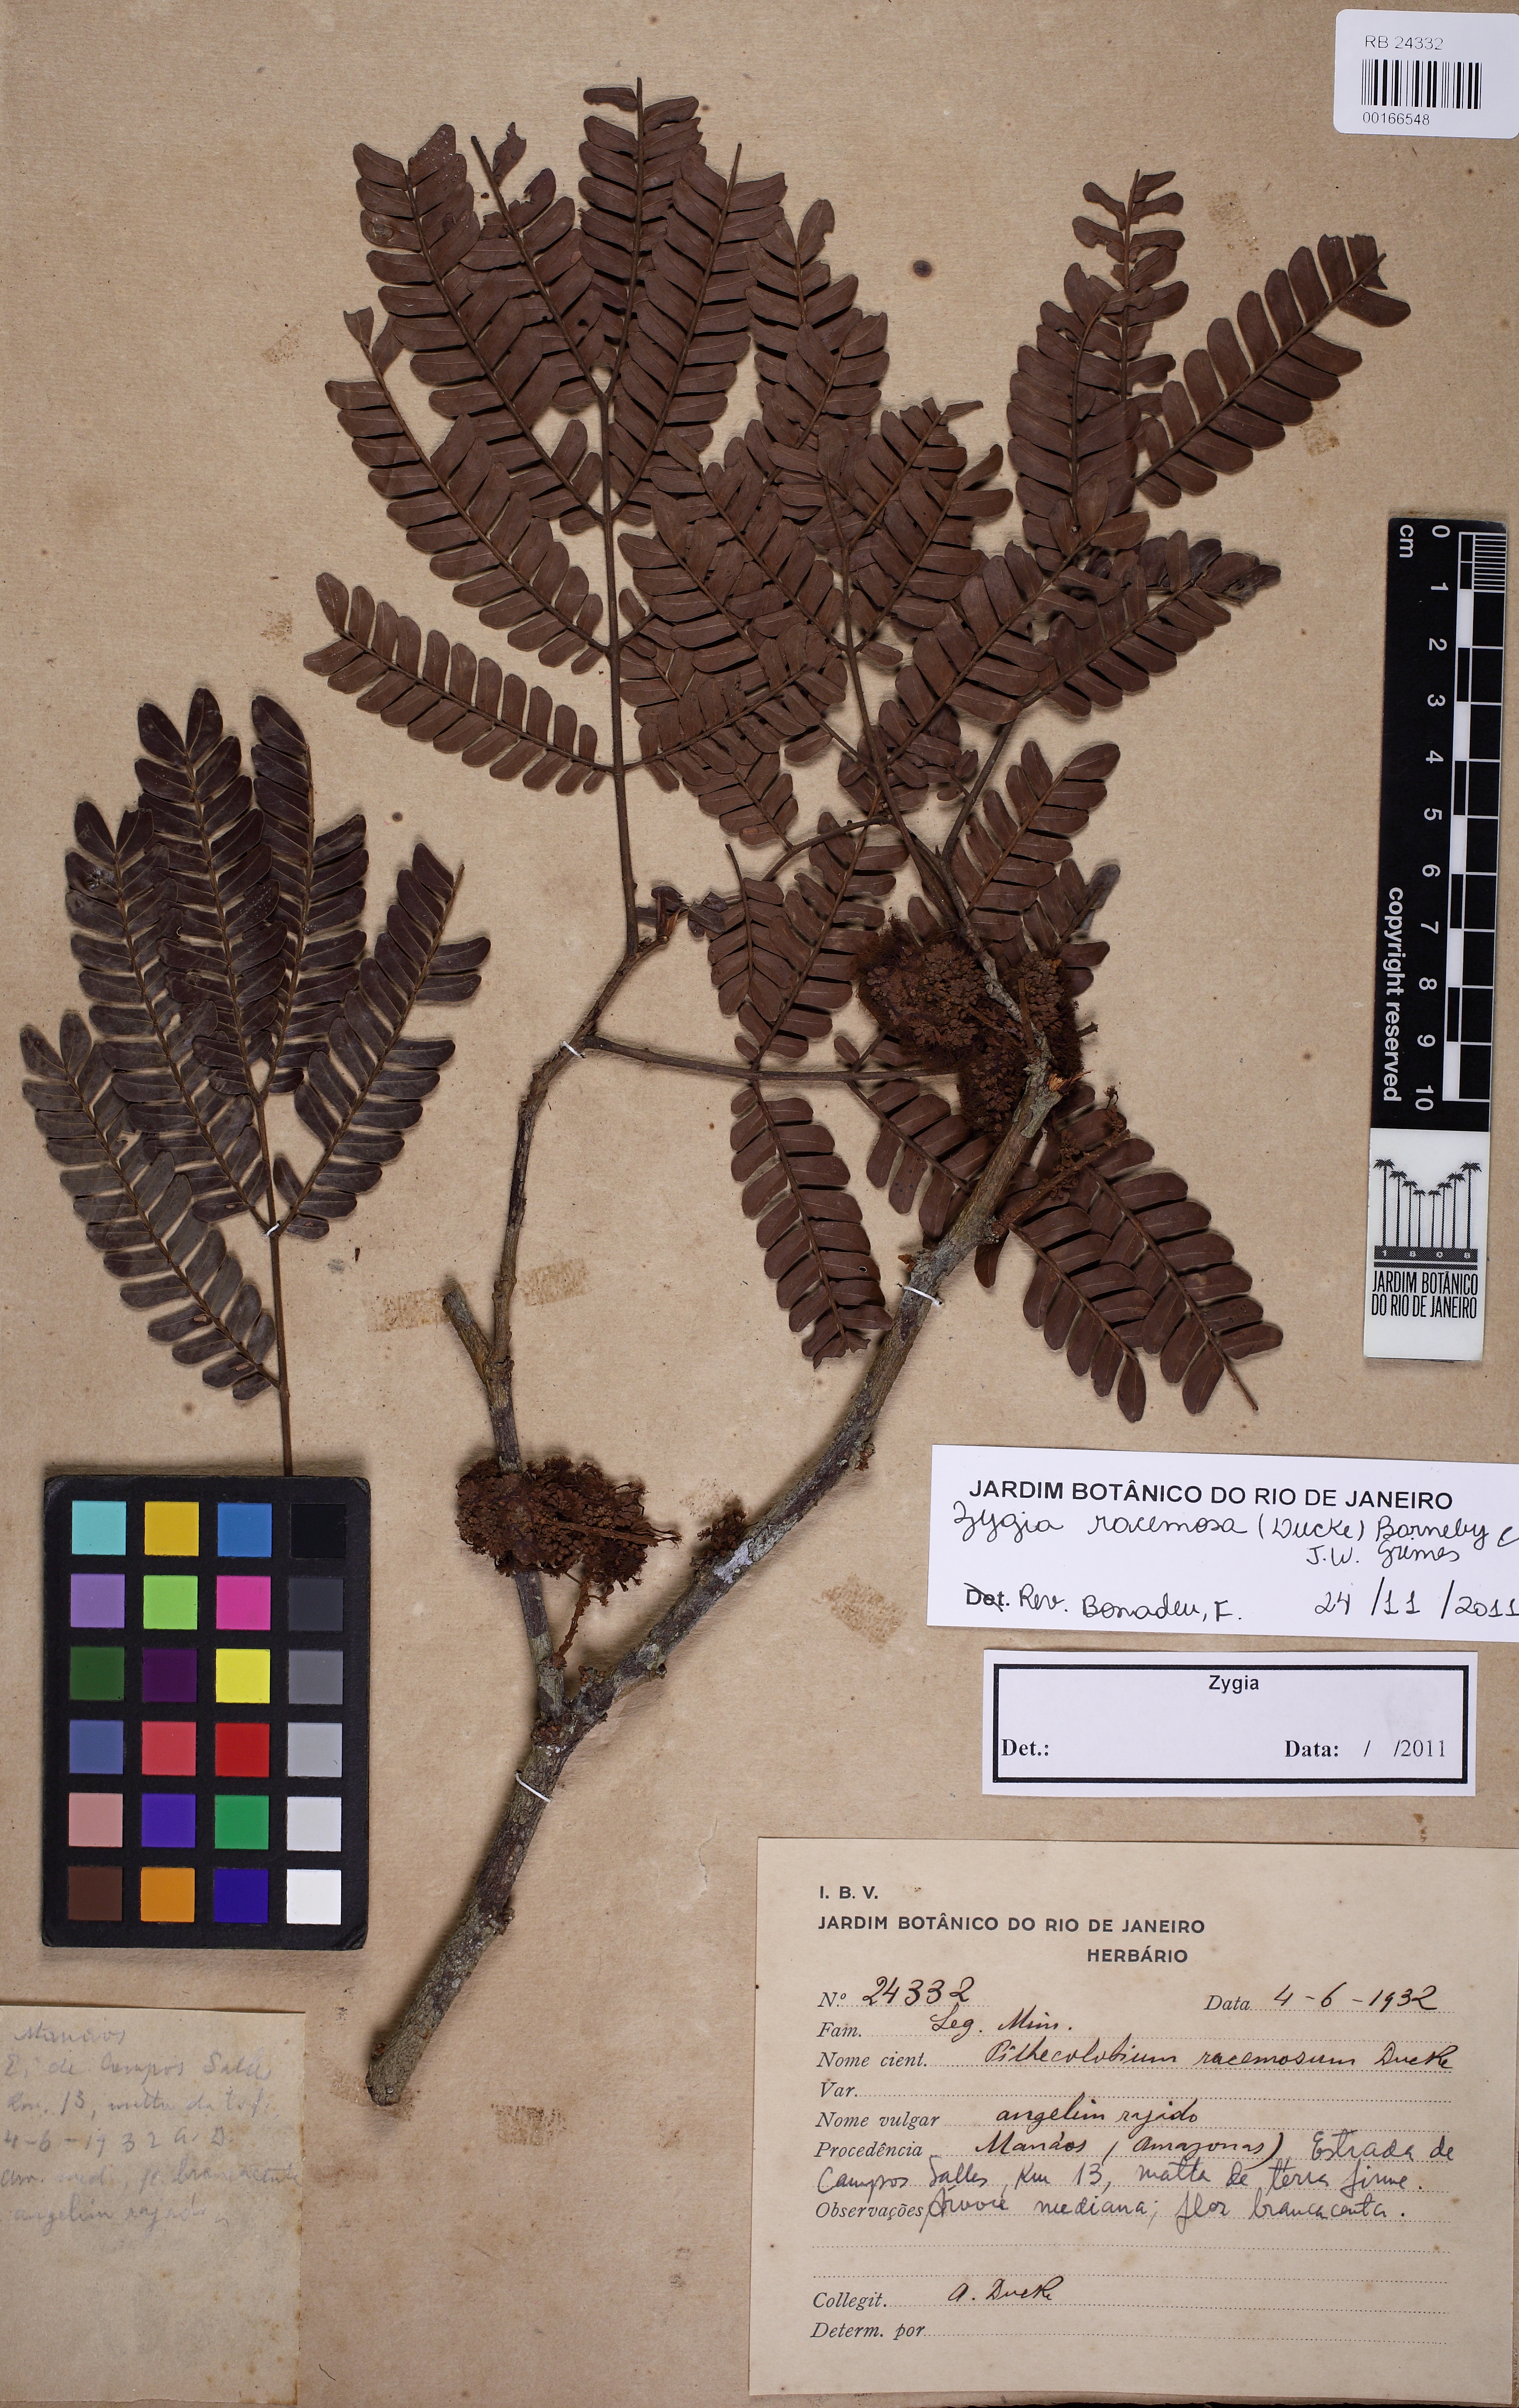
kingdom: Plantae
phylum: Tracheophyta
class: Magnoliopsida
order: Fabales
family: Fabaceae
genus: Zygia
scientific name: Zygia racemosa
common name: Marblewood
